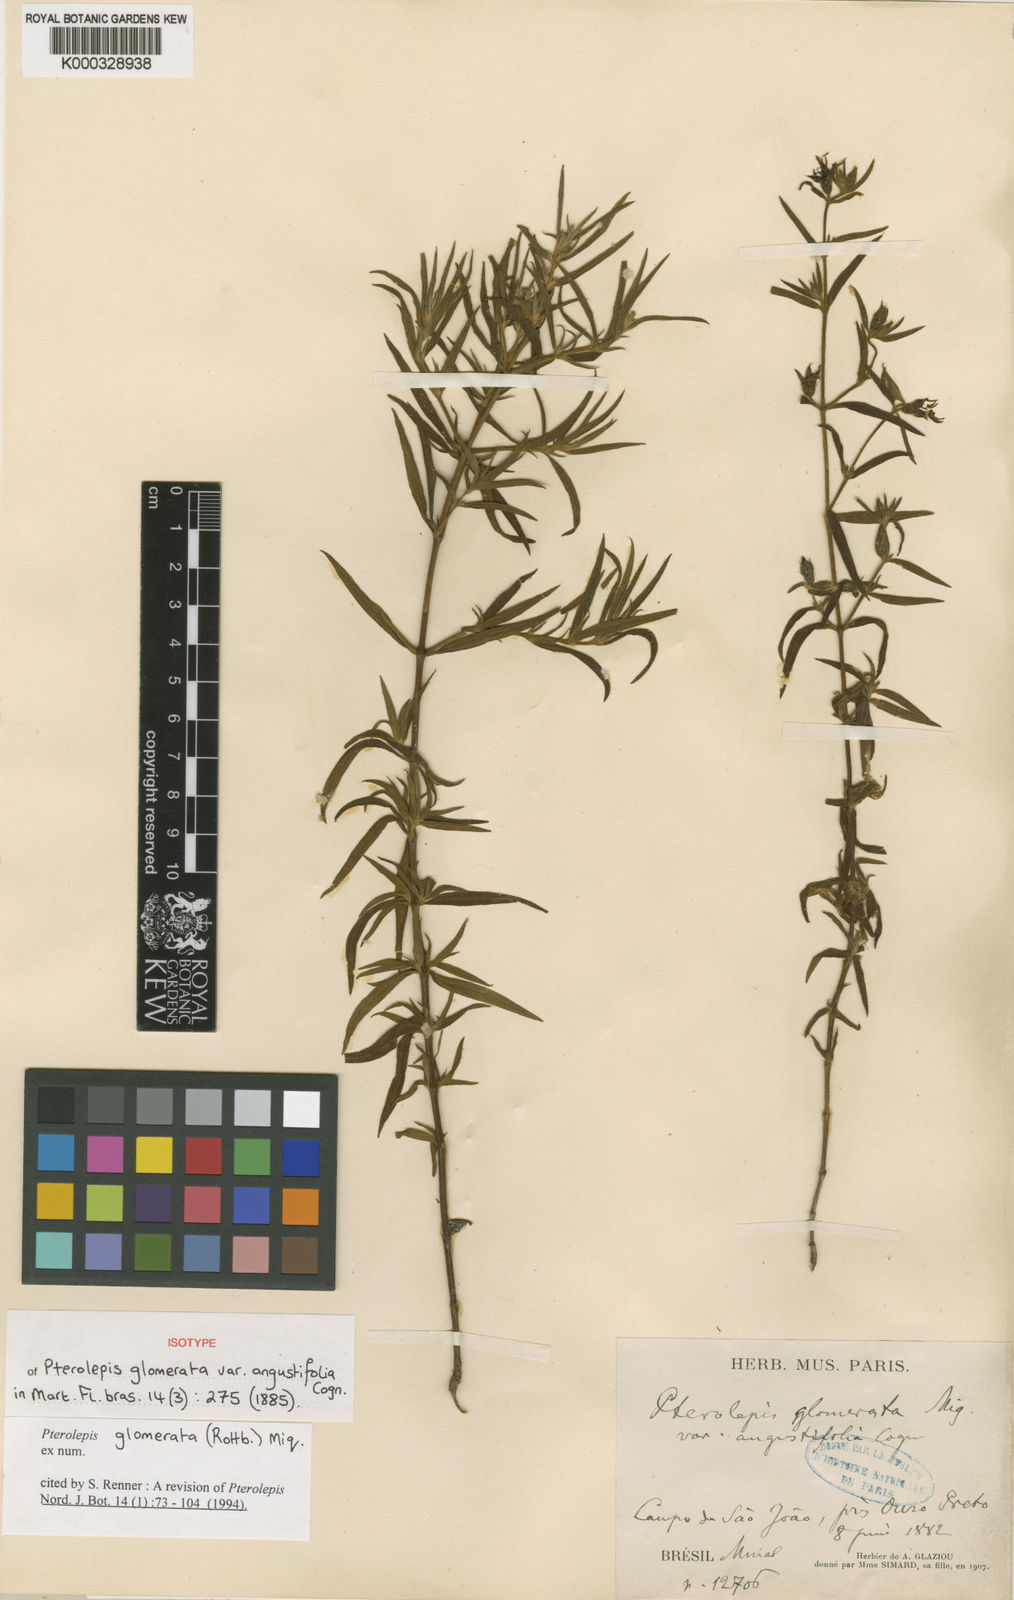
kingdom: Plantae
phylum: Tracheophyta
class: Magnoliopsida
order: Myrtales
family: Melastomataceae
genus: Pterolepis
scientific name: Pterolepis glomerata
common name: False meadowbeauty
